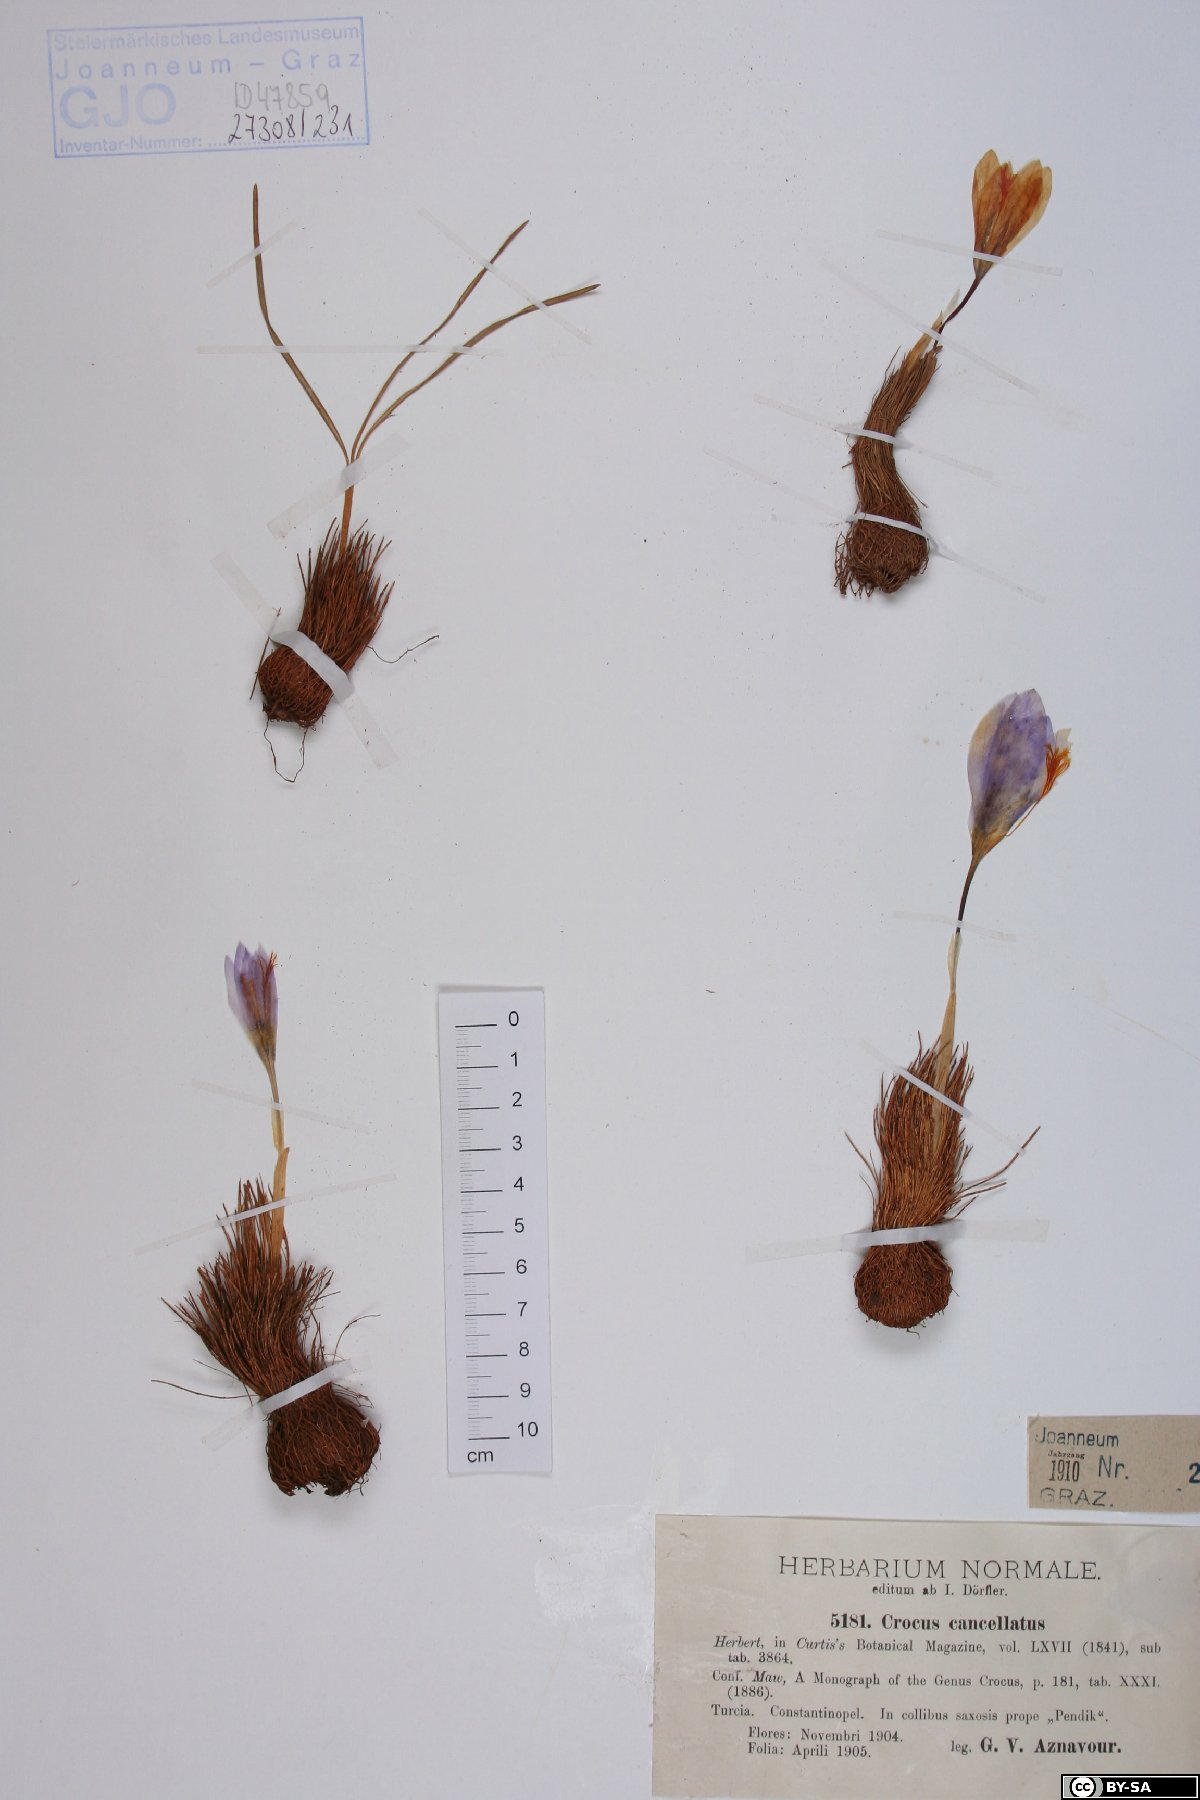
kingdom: Plantae
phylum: Tracheophyta
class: Liliopsida
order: Asparagales
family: Iridaceae
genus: Crocus
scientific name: Crocus cancellatus
